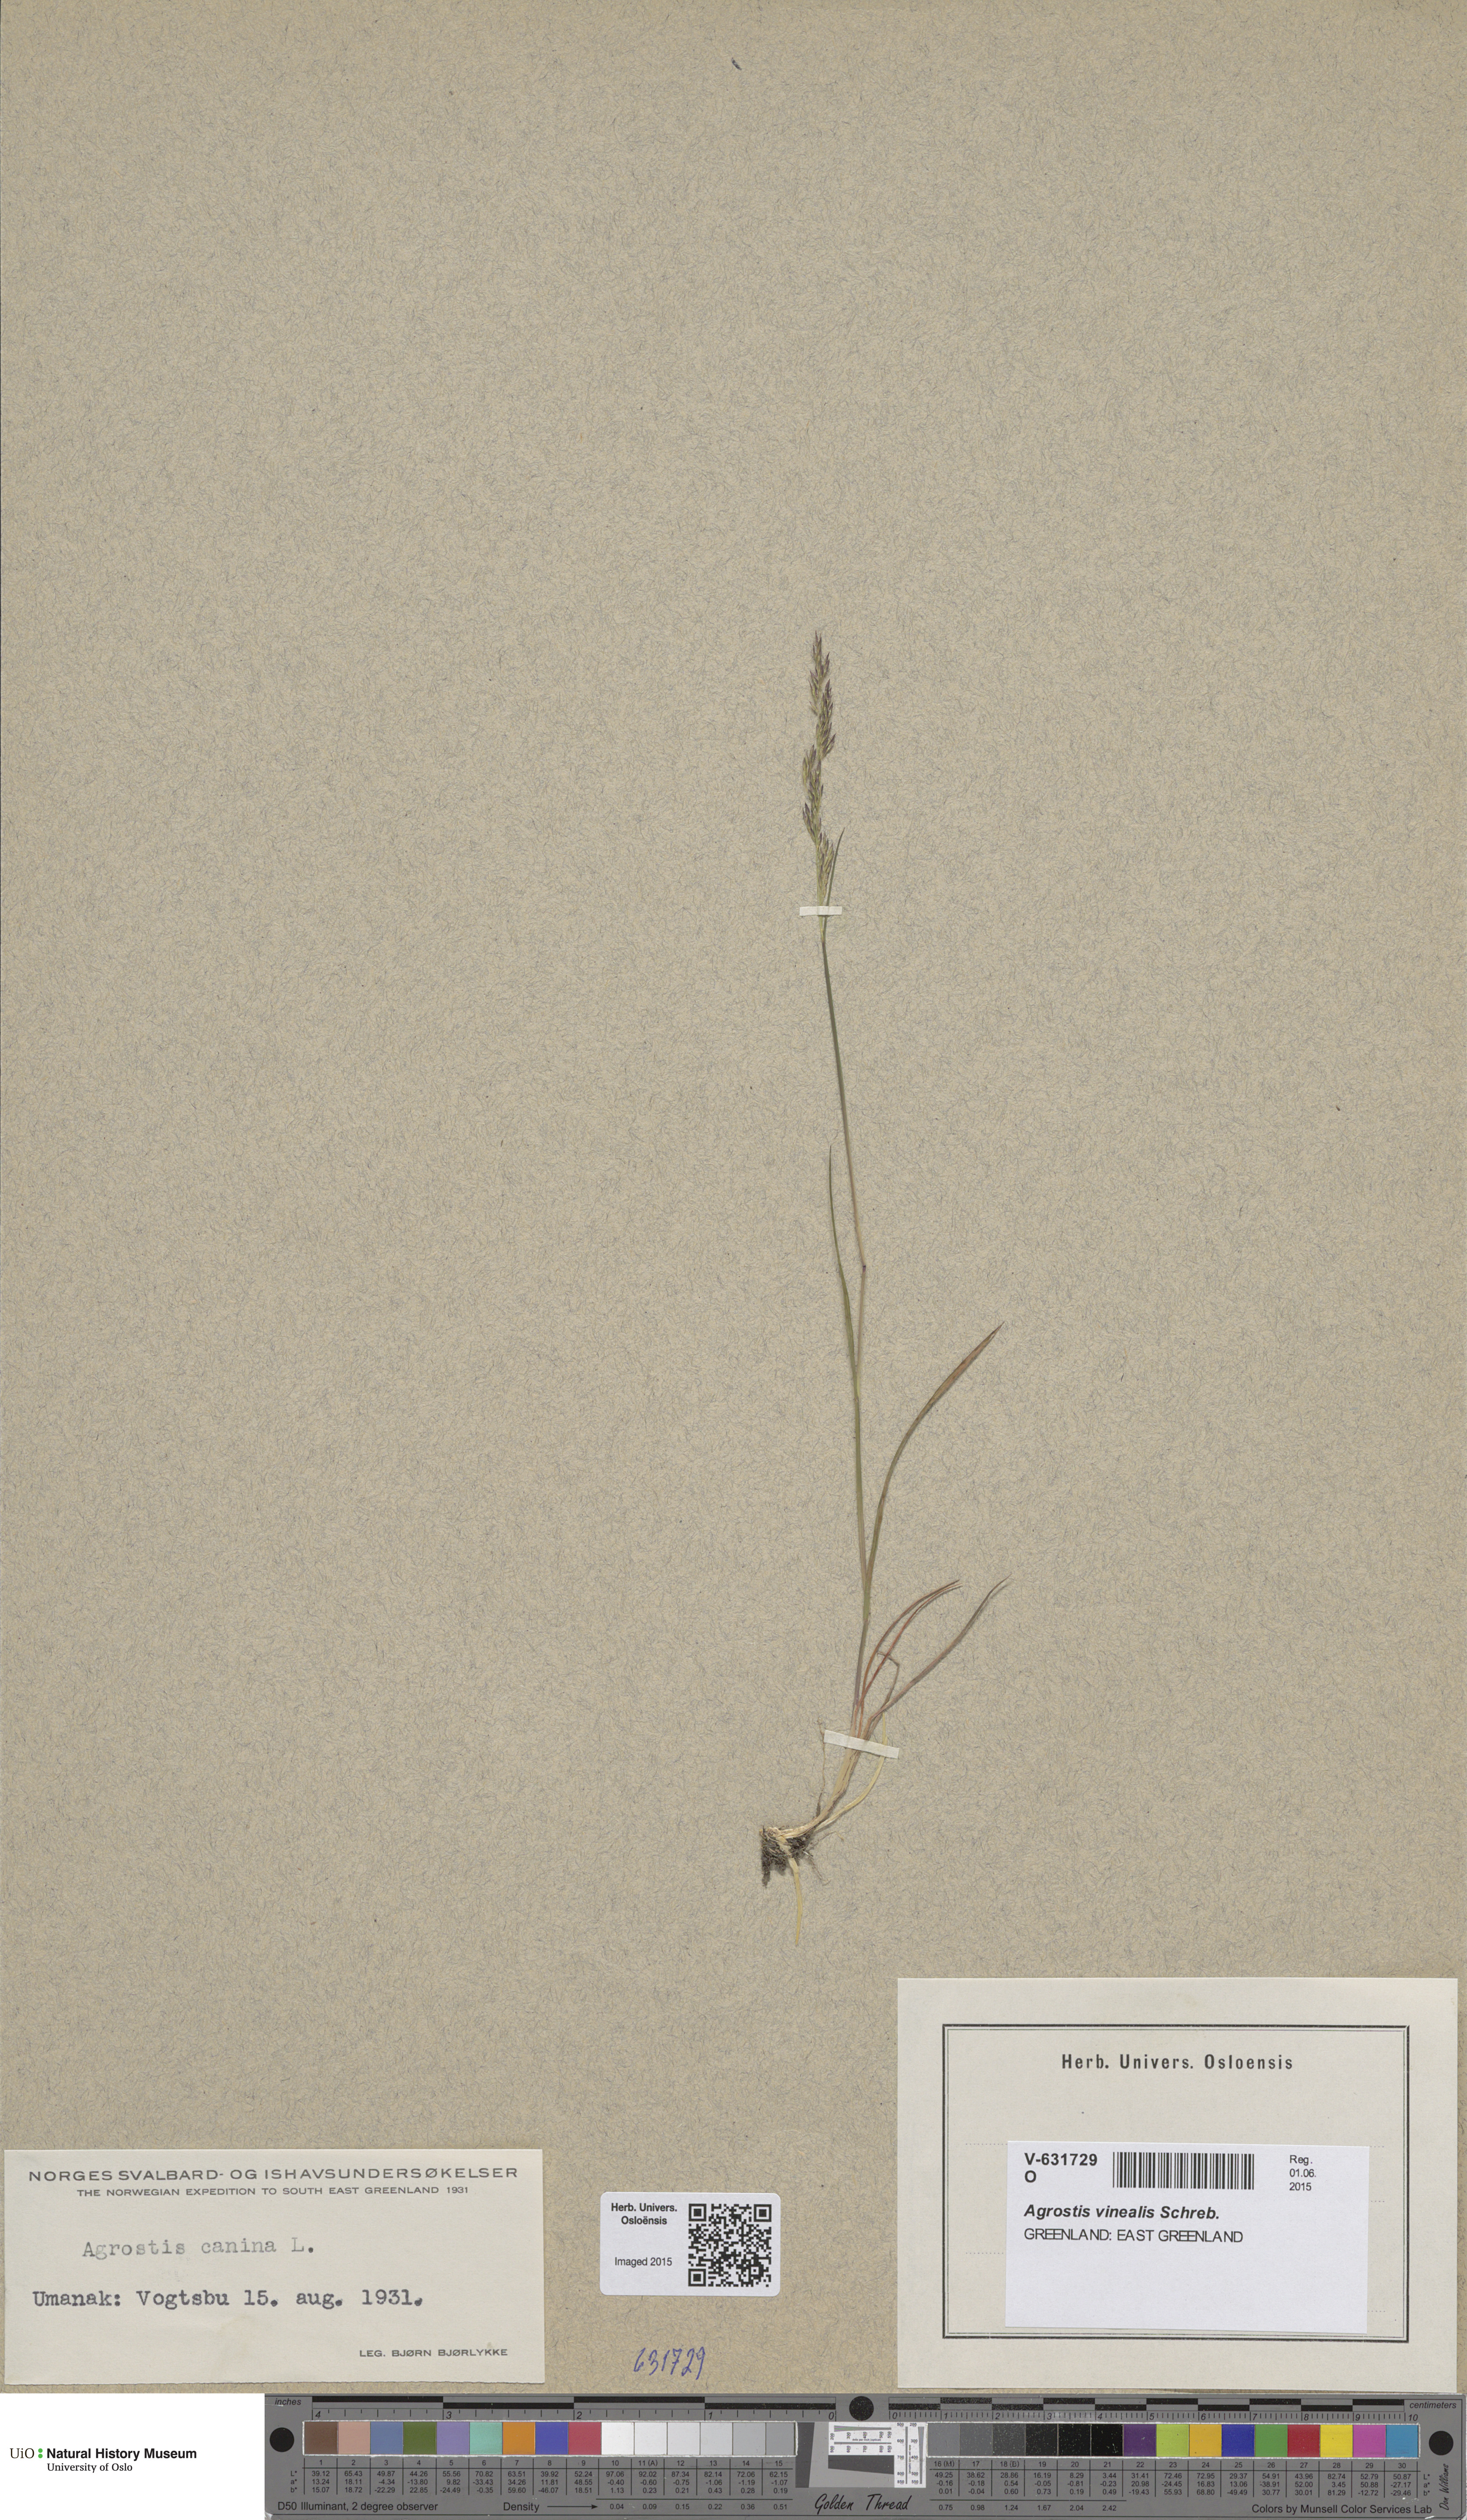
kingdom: Plantae
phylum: Tracheophyta
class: Liliopsida
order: Poales
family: Poaceae
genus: Agrostis
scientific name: Agrostis vinealis
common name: Brown bent
